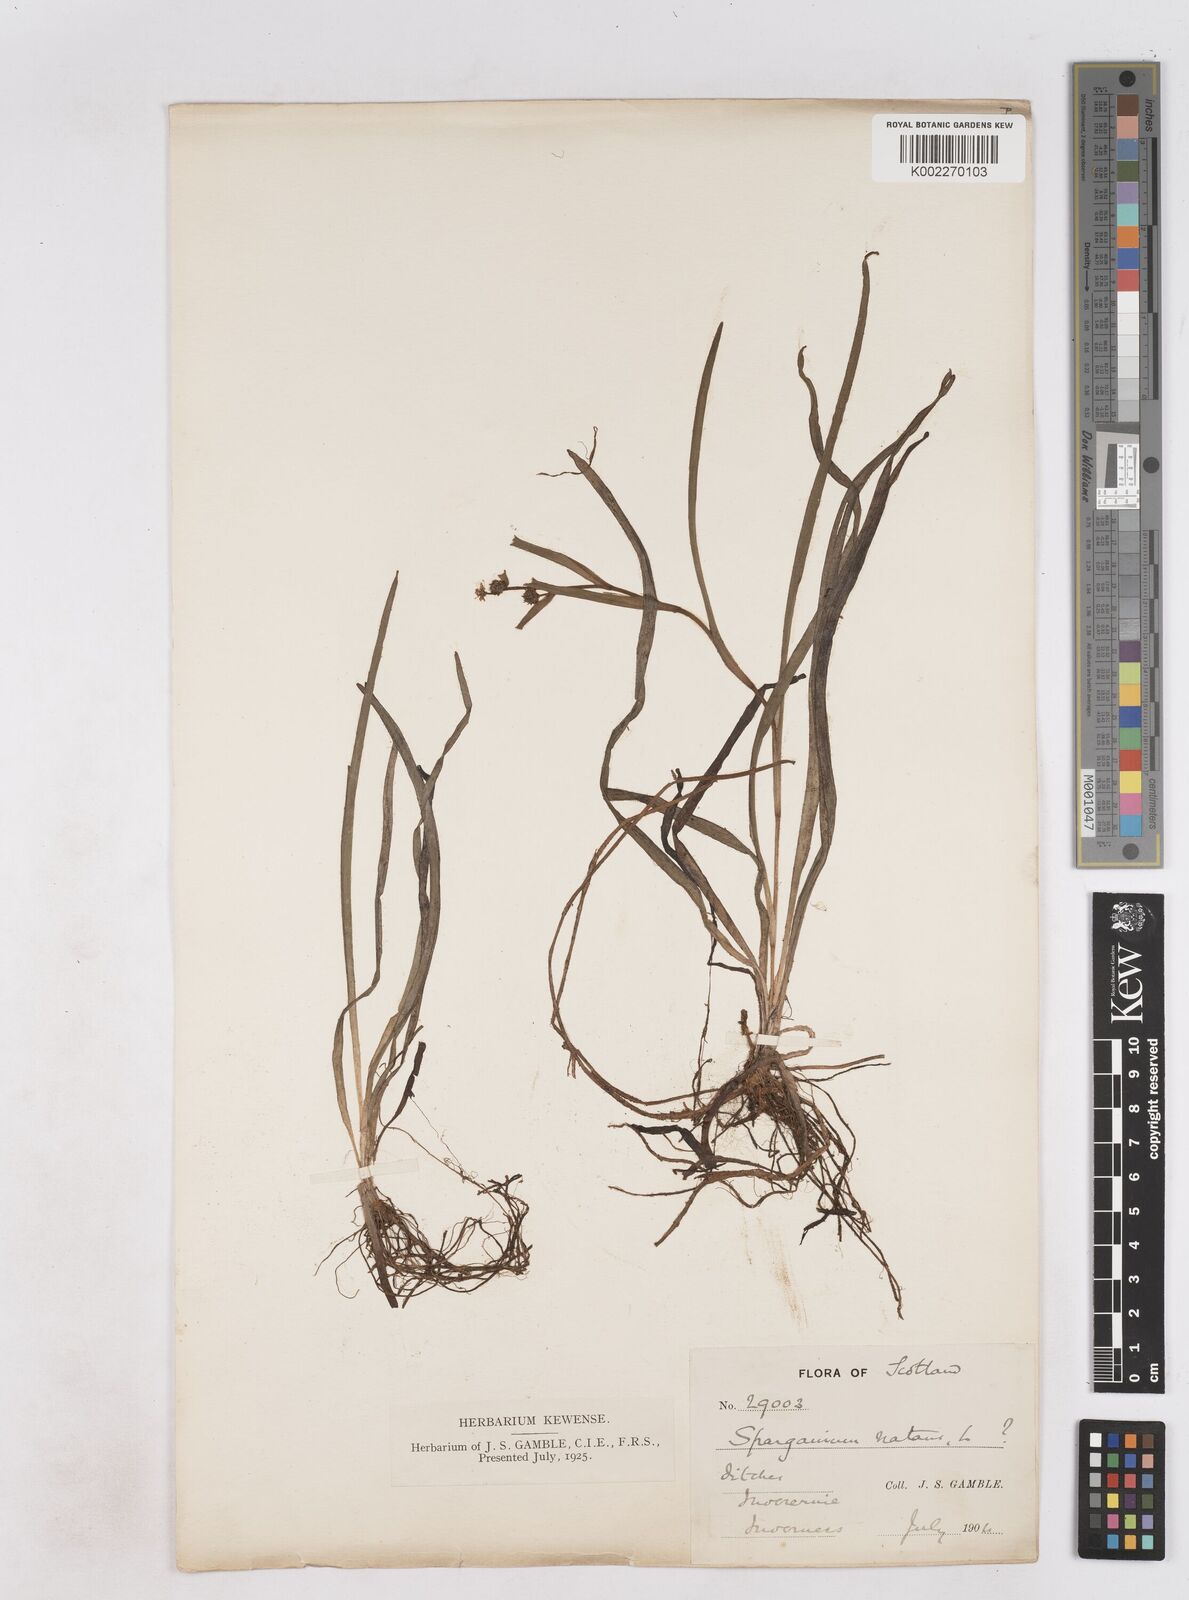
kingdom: Plantae
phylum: Tracheophyta
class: Liliopsida
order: Poales
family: Typhaceae
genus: Sparganium
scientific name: Sparganium natans
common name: Least bur-reed
